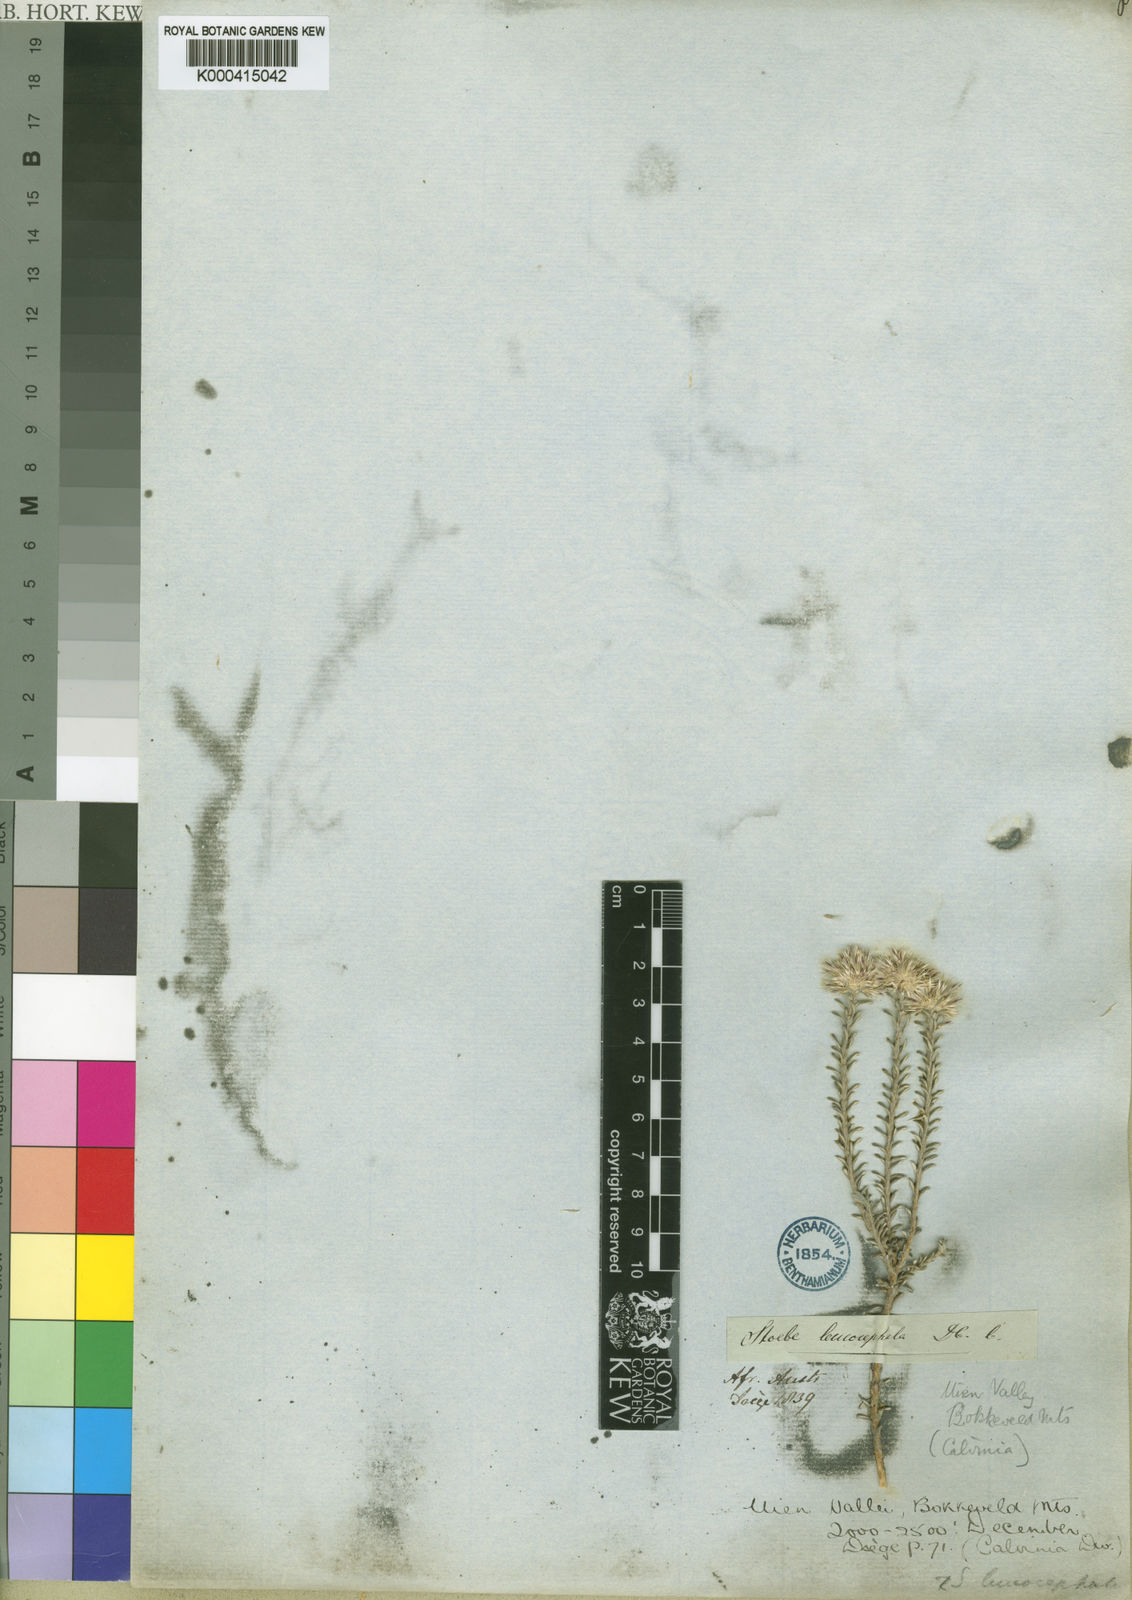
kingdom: Plantae
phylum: Tracheophyta
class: Magnoliopsida
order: Asterales
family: Asteraceae
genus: Stoebe
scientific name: Stoebe leucocephala
